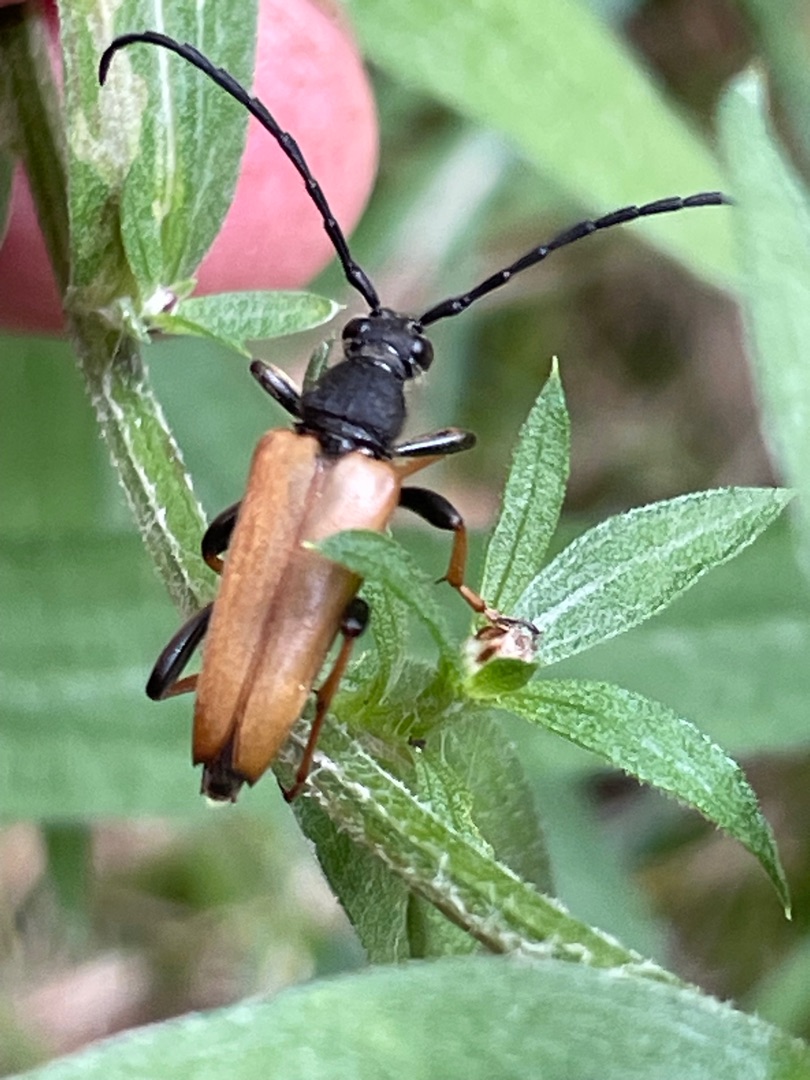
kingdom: Animalia
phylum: Arthropoda
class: Insecta
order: Coleoptera
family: Cerambycidae
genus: Stictoleptura
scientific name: Stictoleptura rubra
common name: Rød blomsterbuk
